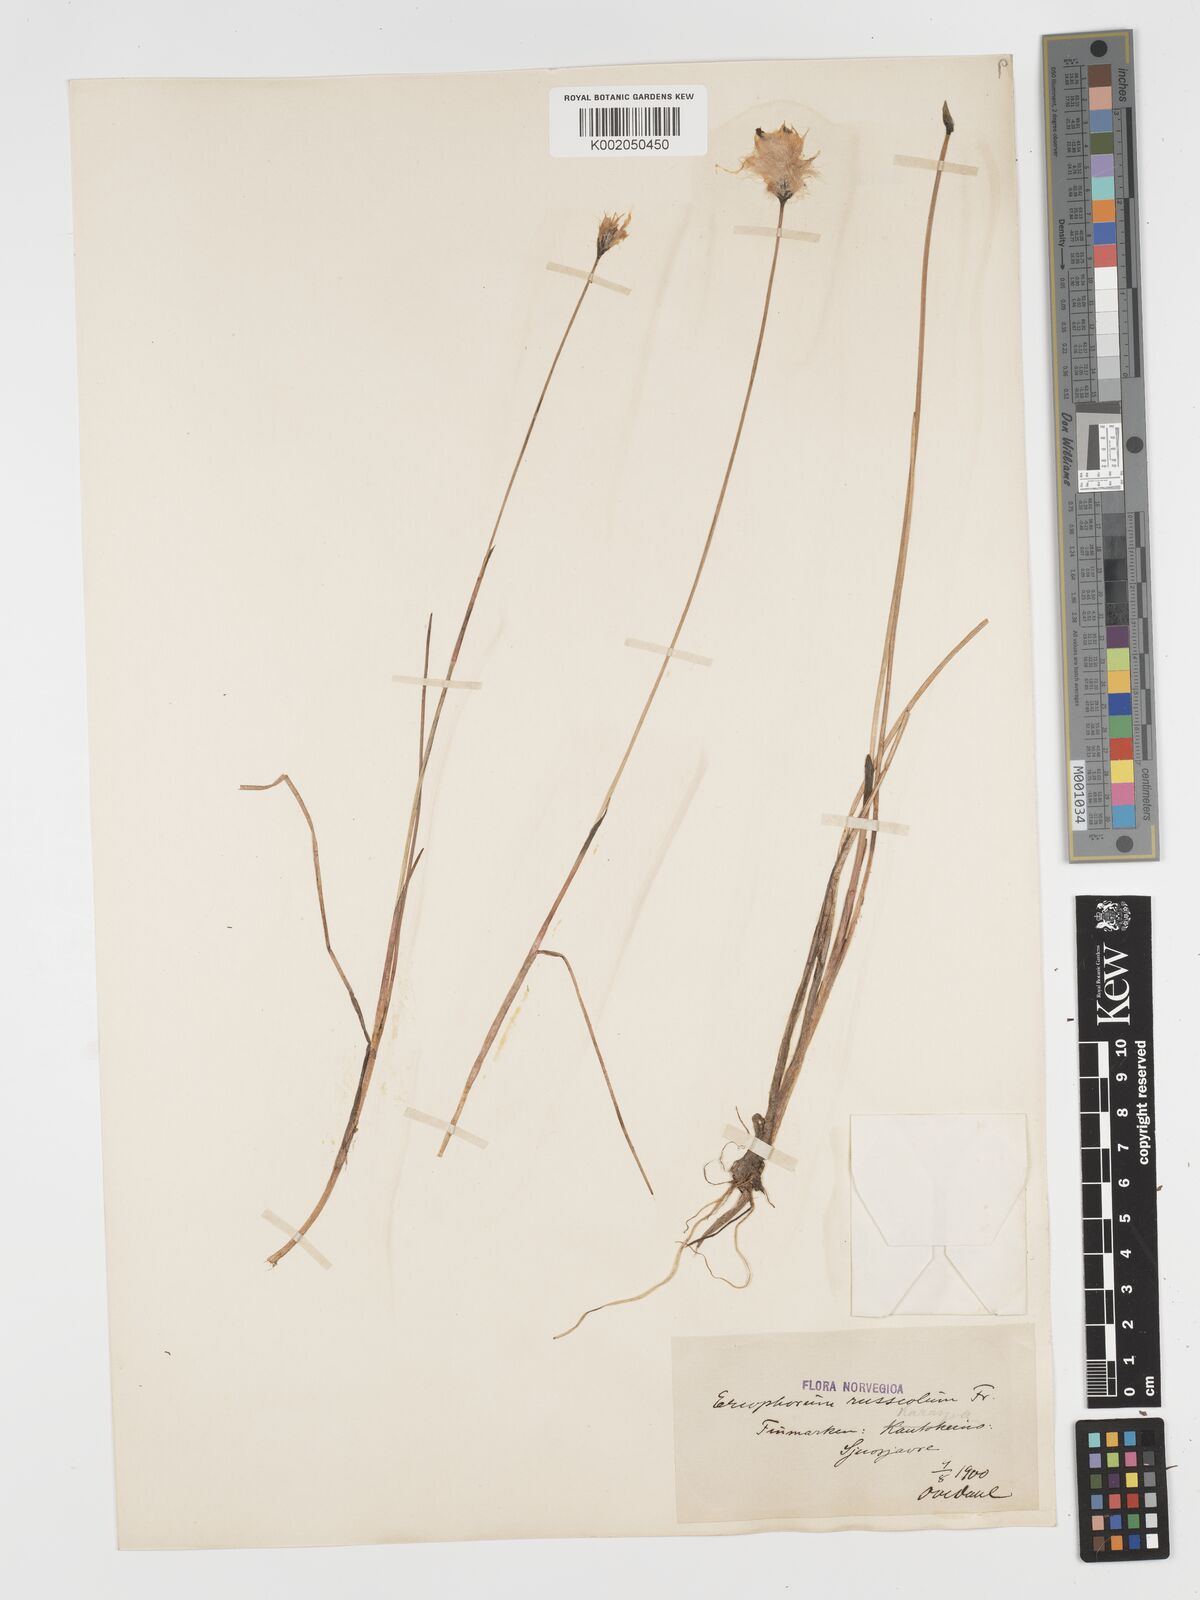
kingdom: Plantae
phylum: Tracheophyta
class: Liliopsida
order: Poales
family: Cyperaceae
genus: Eriophorum
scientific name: Eriophorum scheuchzeri
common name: Scheuchzer's cottongrass
